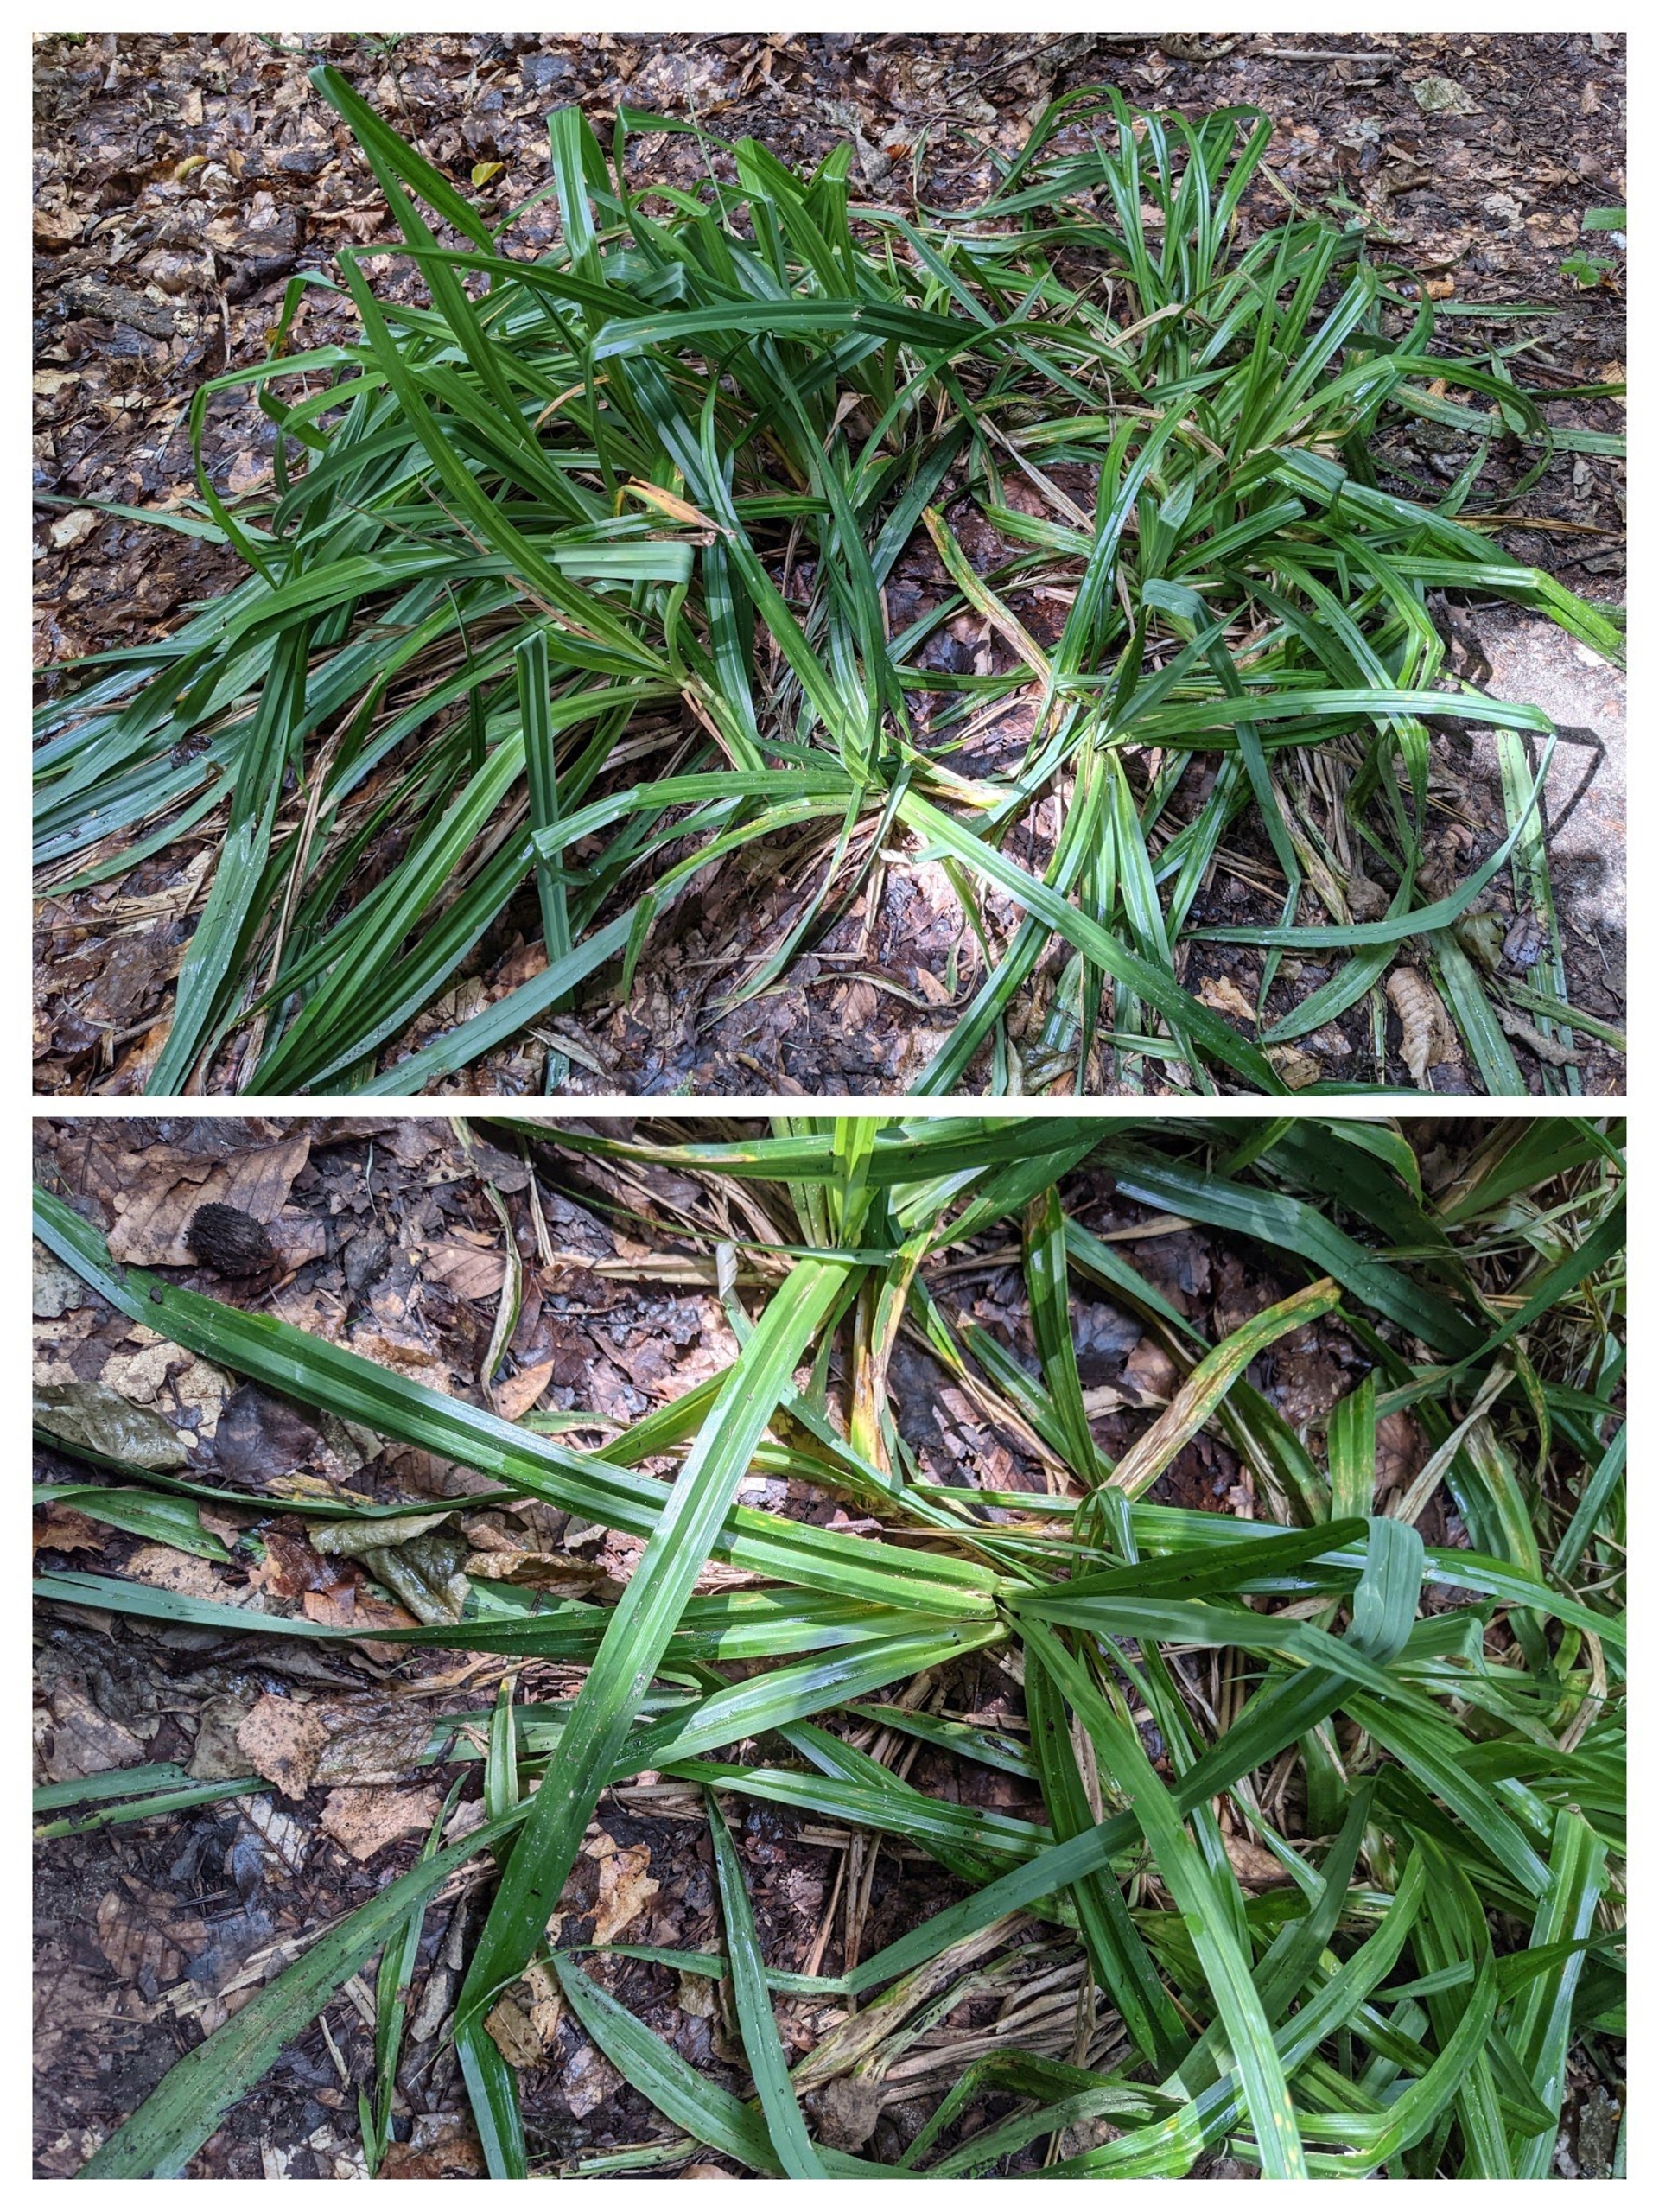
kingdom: Plantae
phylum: Tracheophyta
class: Liliopsida
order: Poales
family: Cyperaceae
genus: Carex
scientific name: Carex pendula
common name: Kæmpe-star
